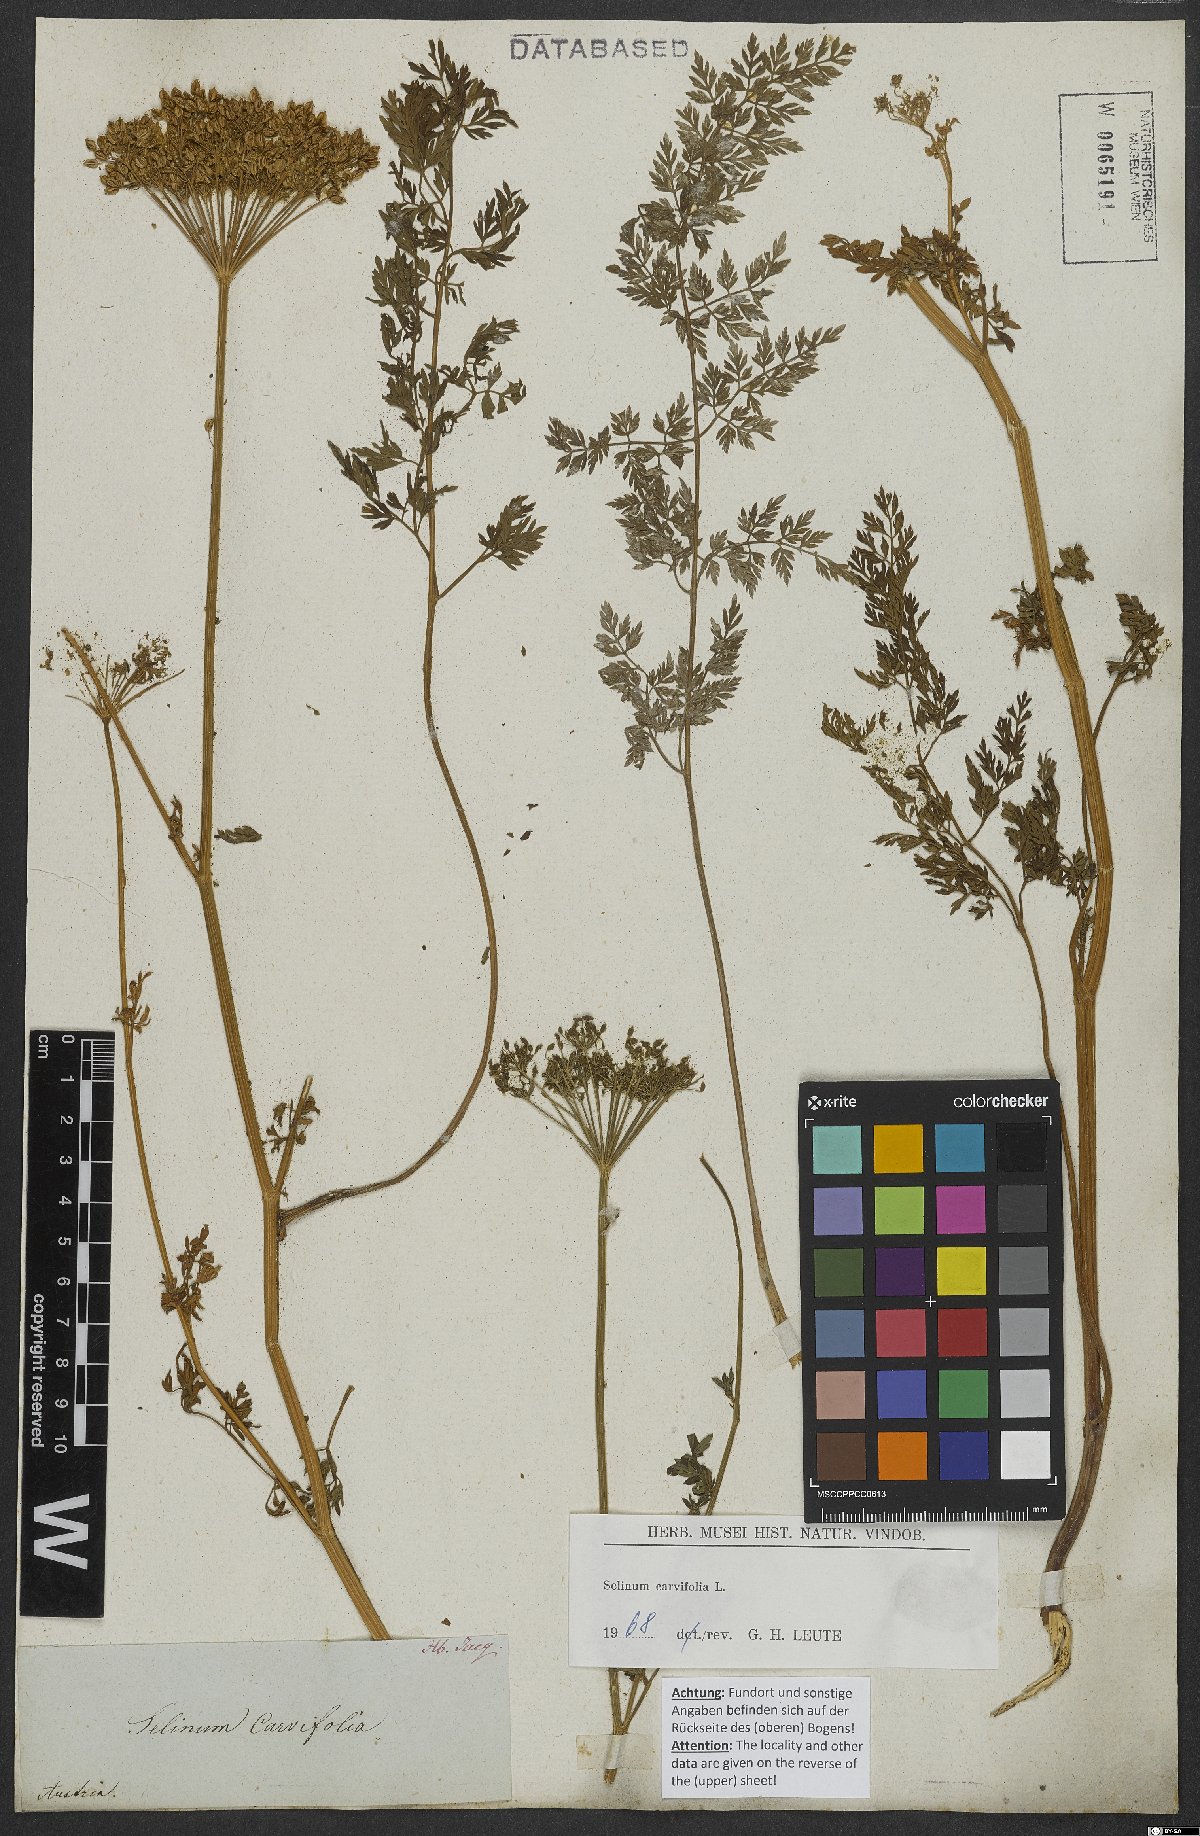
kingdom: Plantae
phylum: Tracheophyta
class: Magnoliopsida
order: Apiales
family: Apiaceae
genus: Selinum
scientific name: Selinum carvifolia
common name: Cambridge milk-parsley
